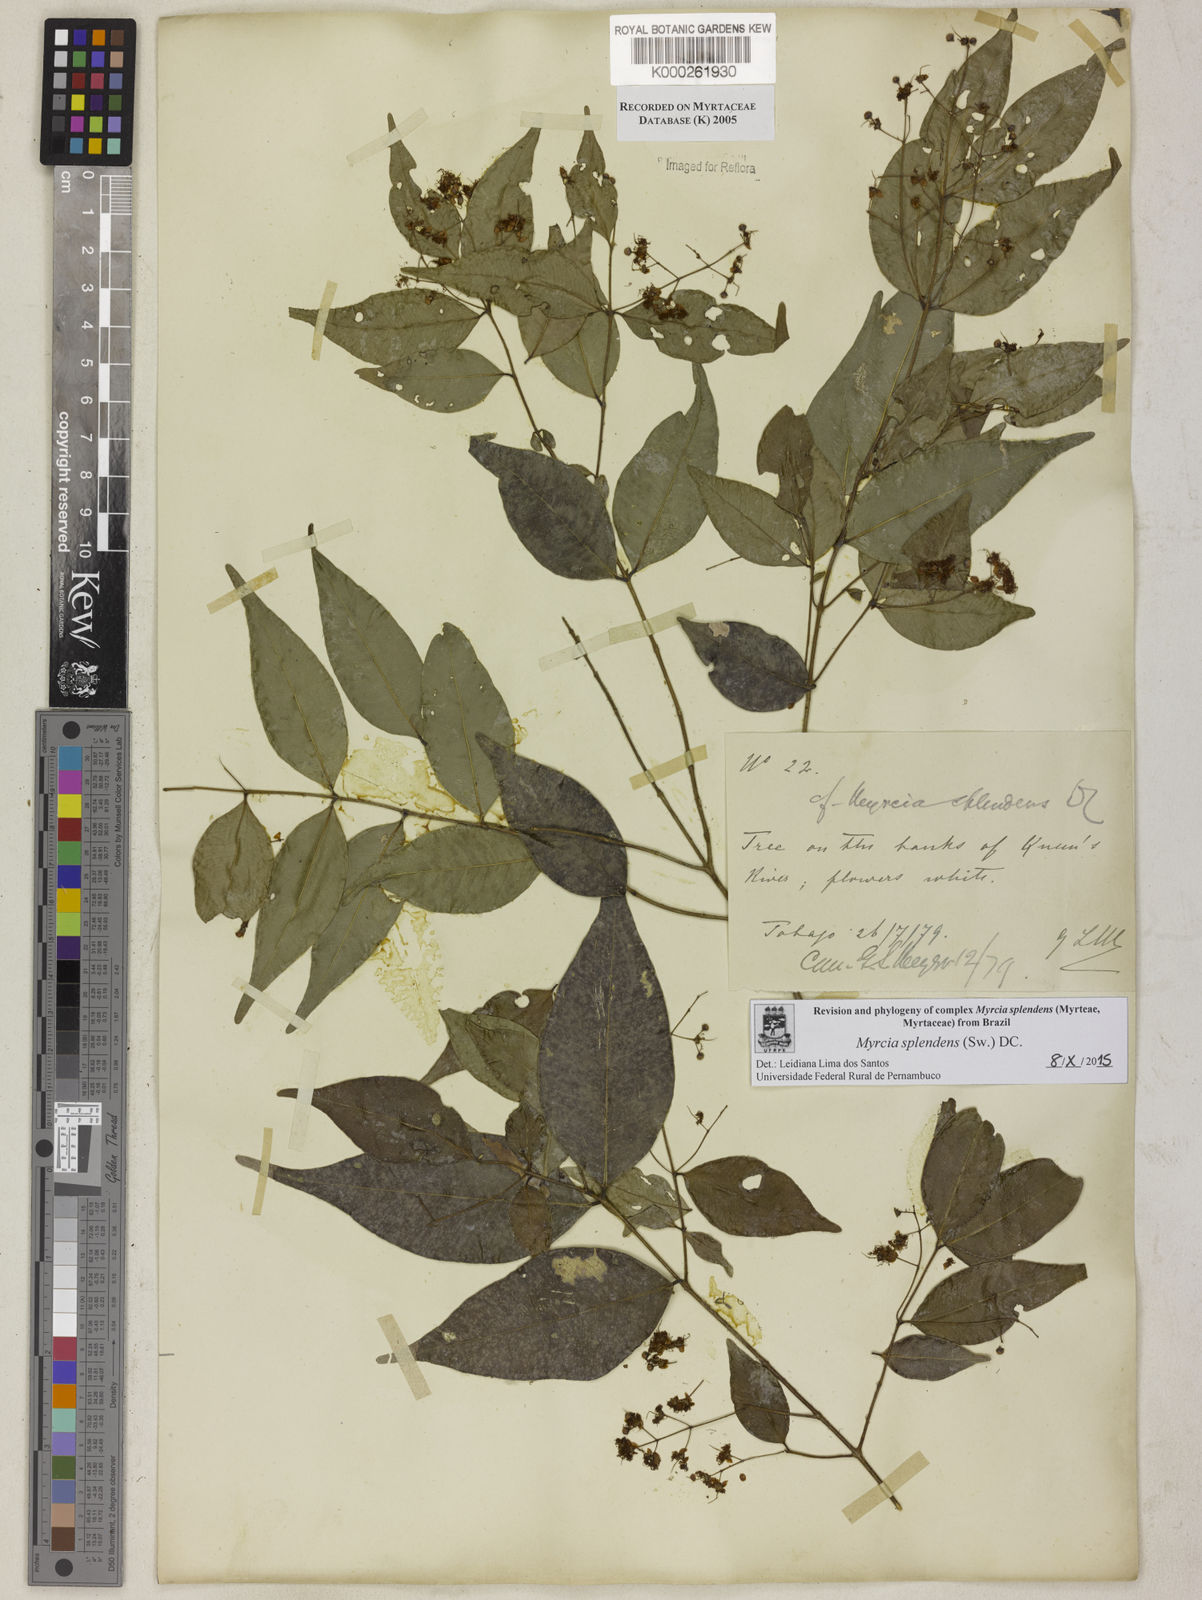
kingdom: Plantae
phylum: Tracheophyta
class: Magnoliopsida
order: Myrtales
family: Myrtaceae
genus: Myrcia
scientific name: Myrcia splendens
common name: Surinam cherry
